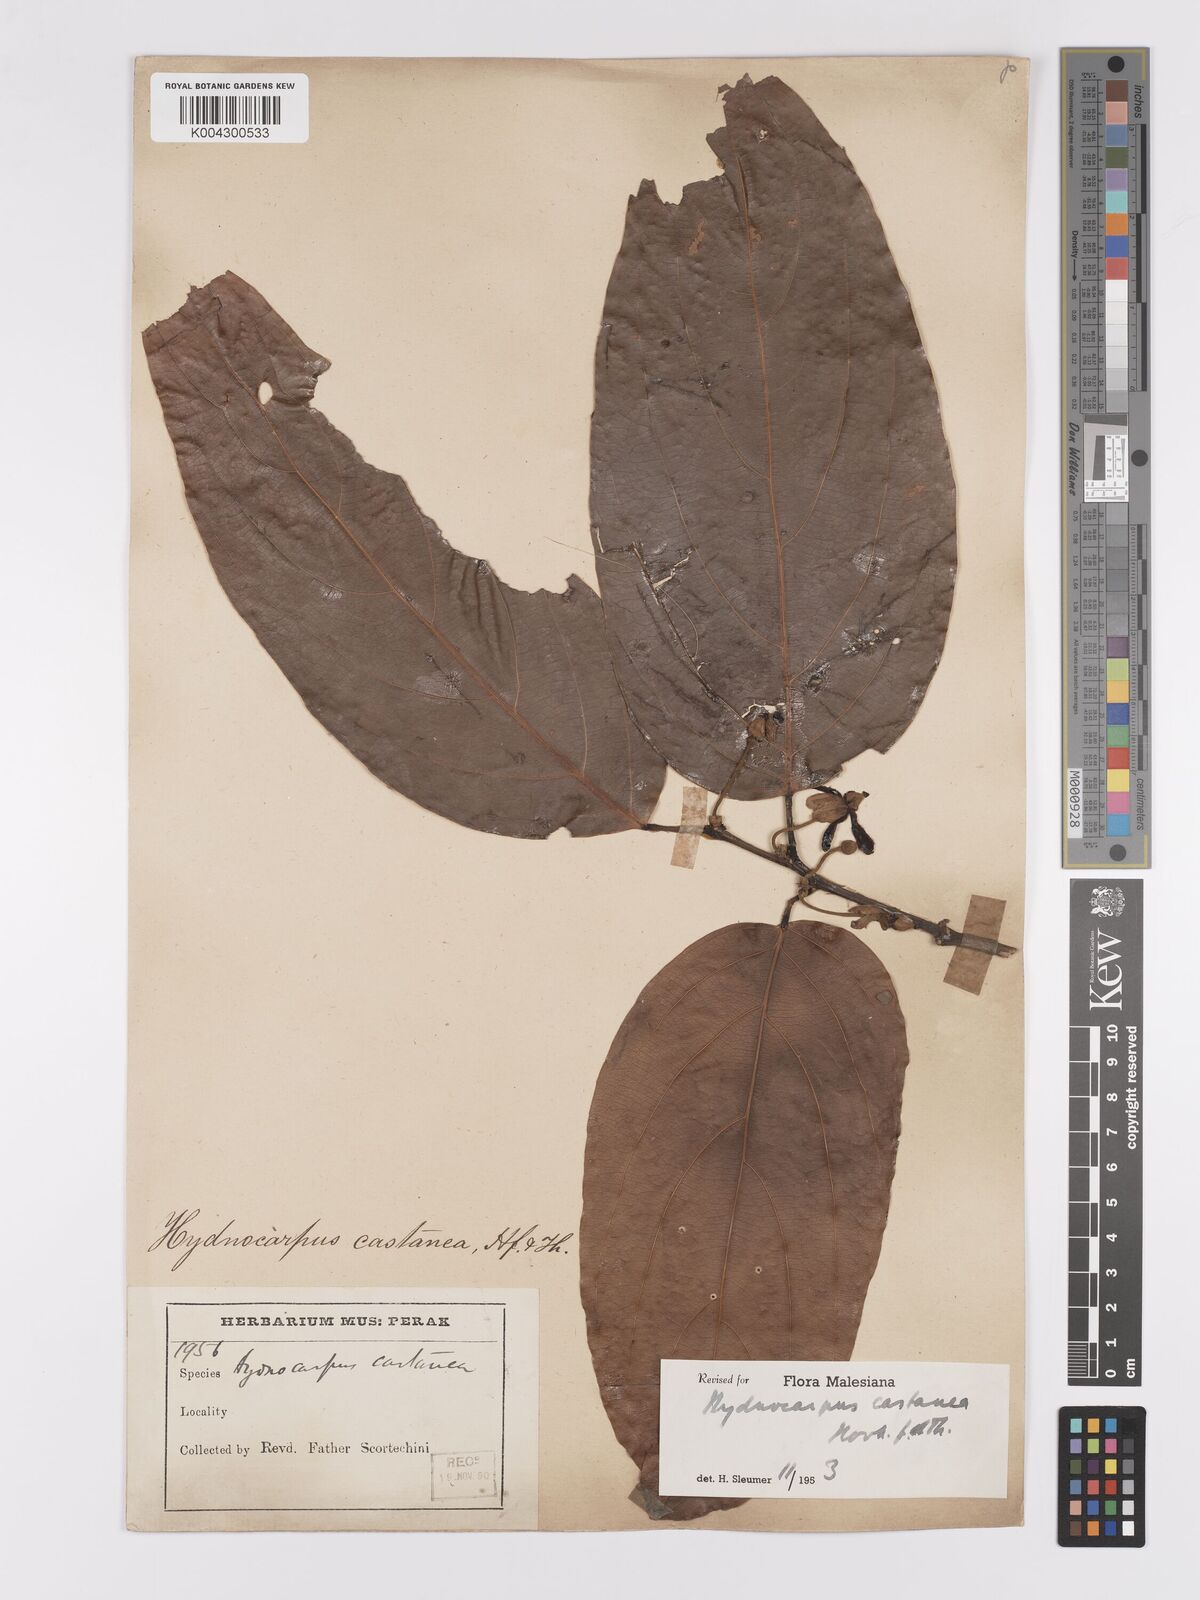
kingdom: Plantae
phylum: Tracheophyta
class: Magnoliopsida
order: Malpighiales
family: Achariaceae
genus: Hydnocarpus
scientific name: Hydnocarpus castaneus
